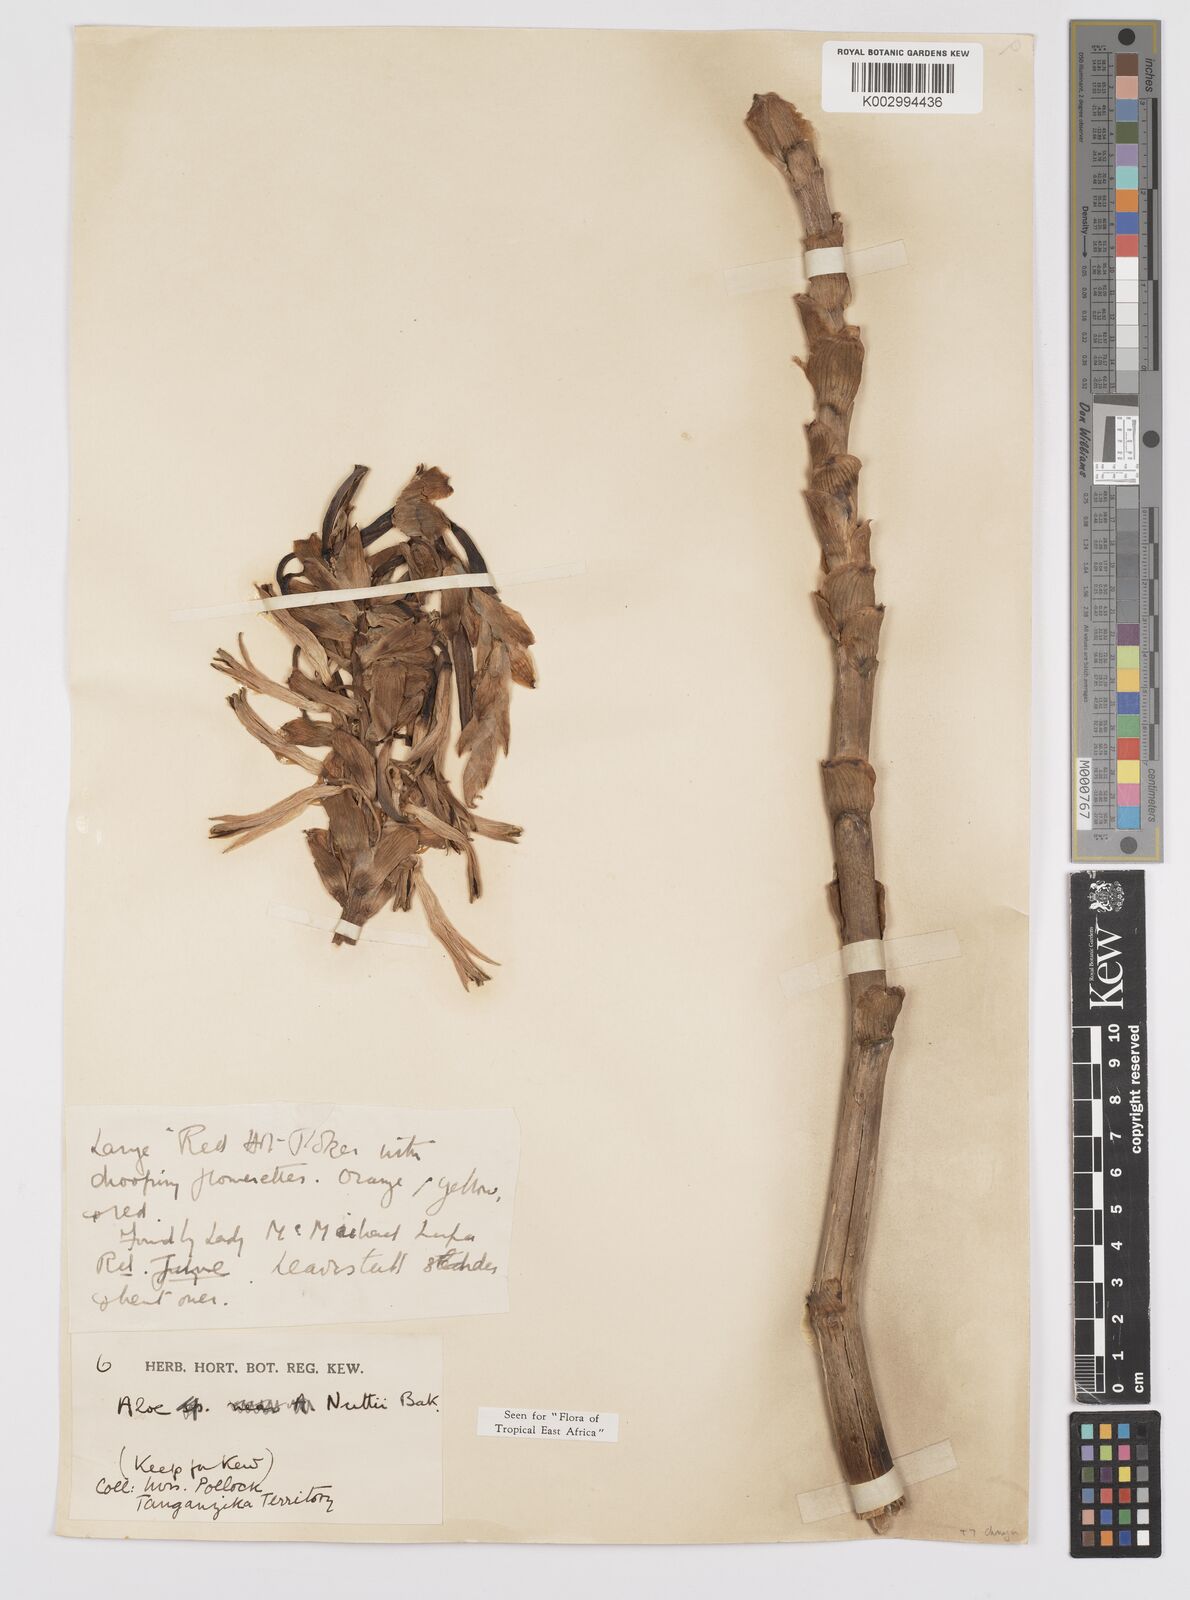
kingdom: Plantae
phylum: Tracheophyta
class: Liliopsida
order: Asparagales
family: Asphodelaceae
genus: Aloe
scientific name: Aloe nuttii
